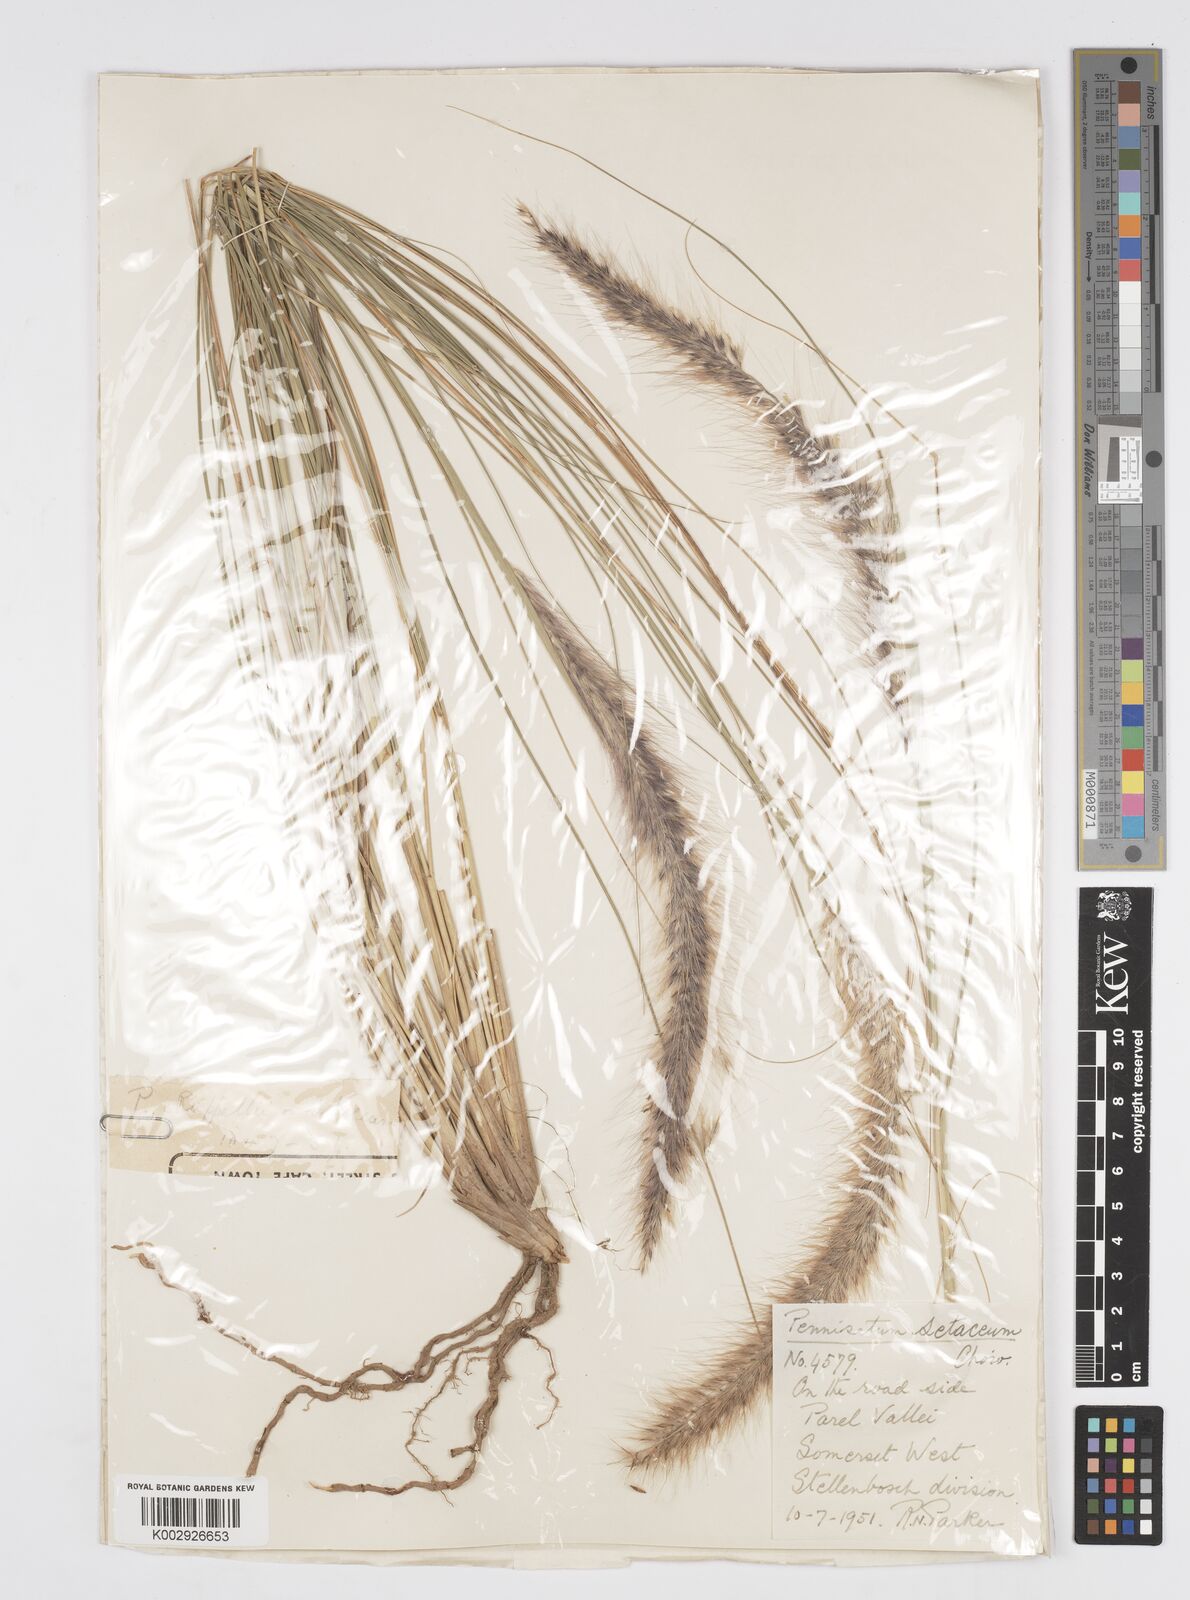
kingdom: Plantae
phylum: Tracheophyta
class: Liliopsida
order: Poales
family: Poaceae
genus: Cenchrus
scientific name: Cenchrus setaceus
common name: Crimson fountaingrass
